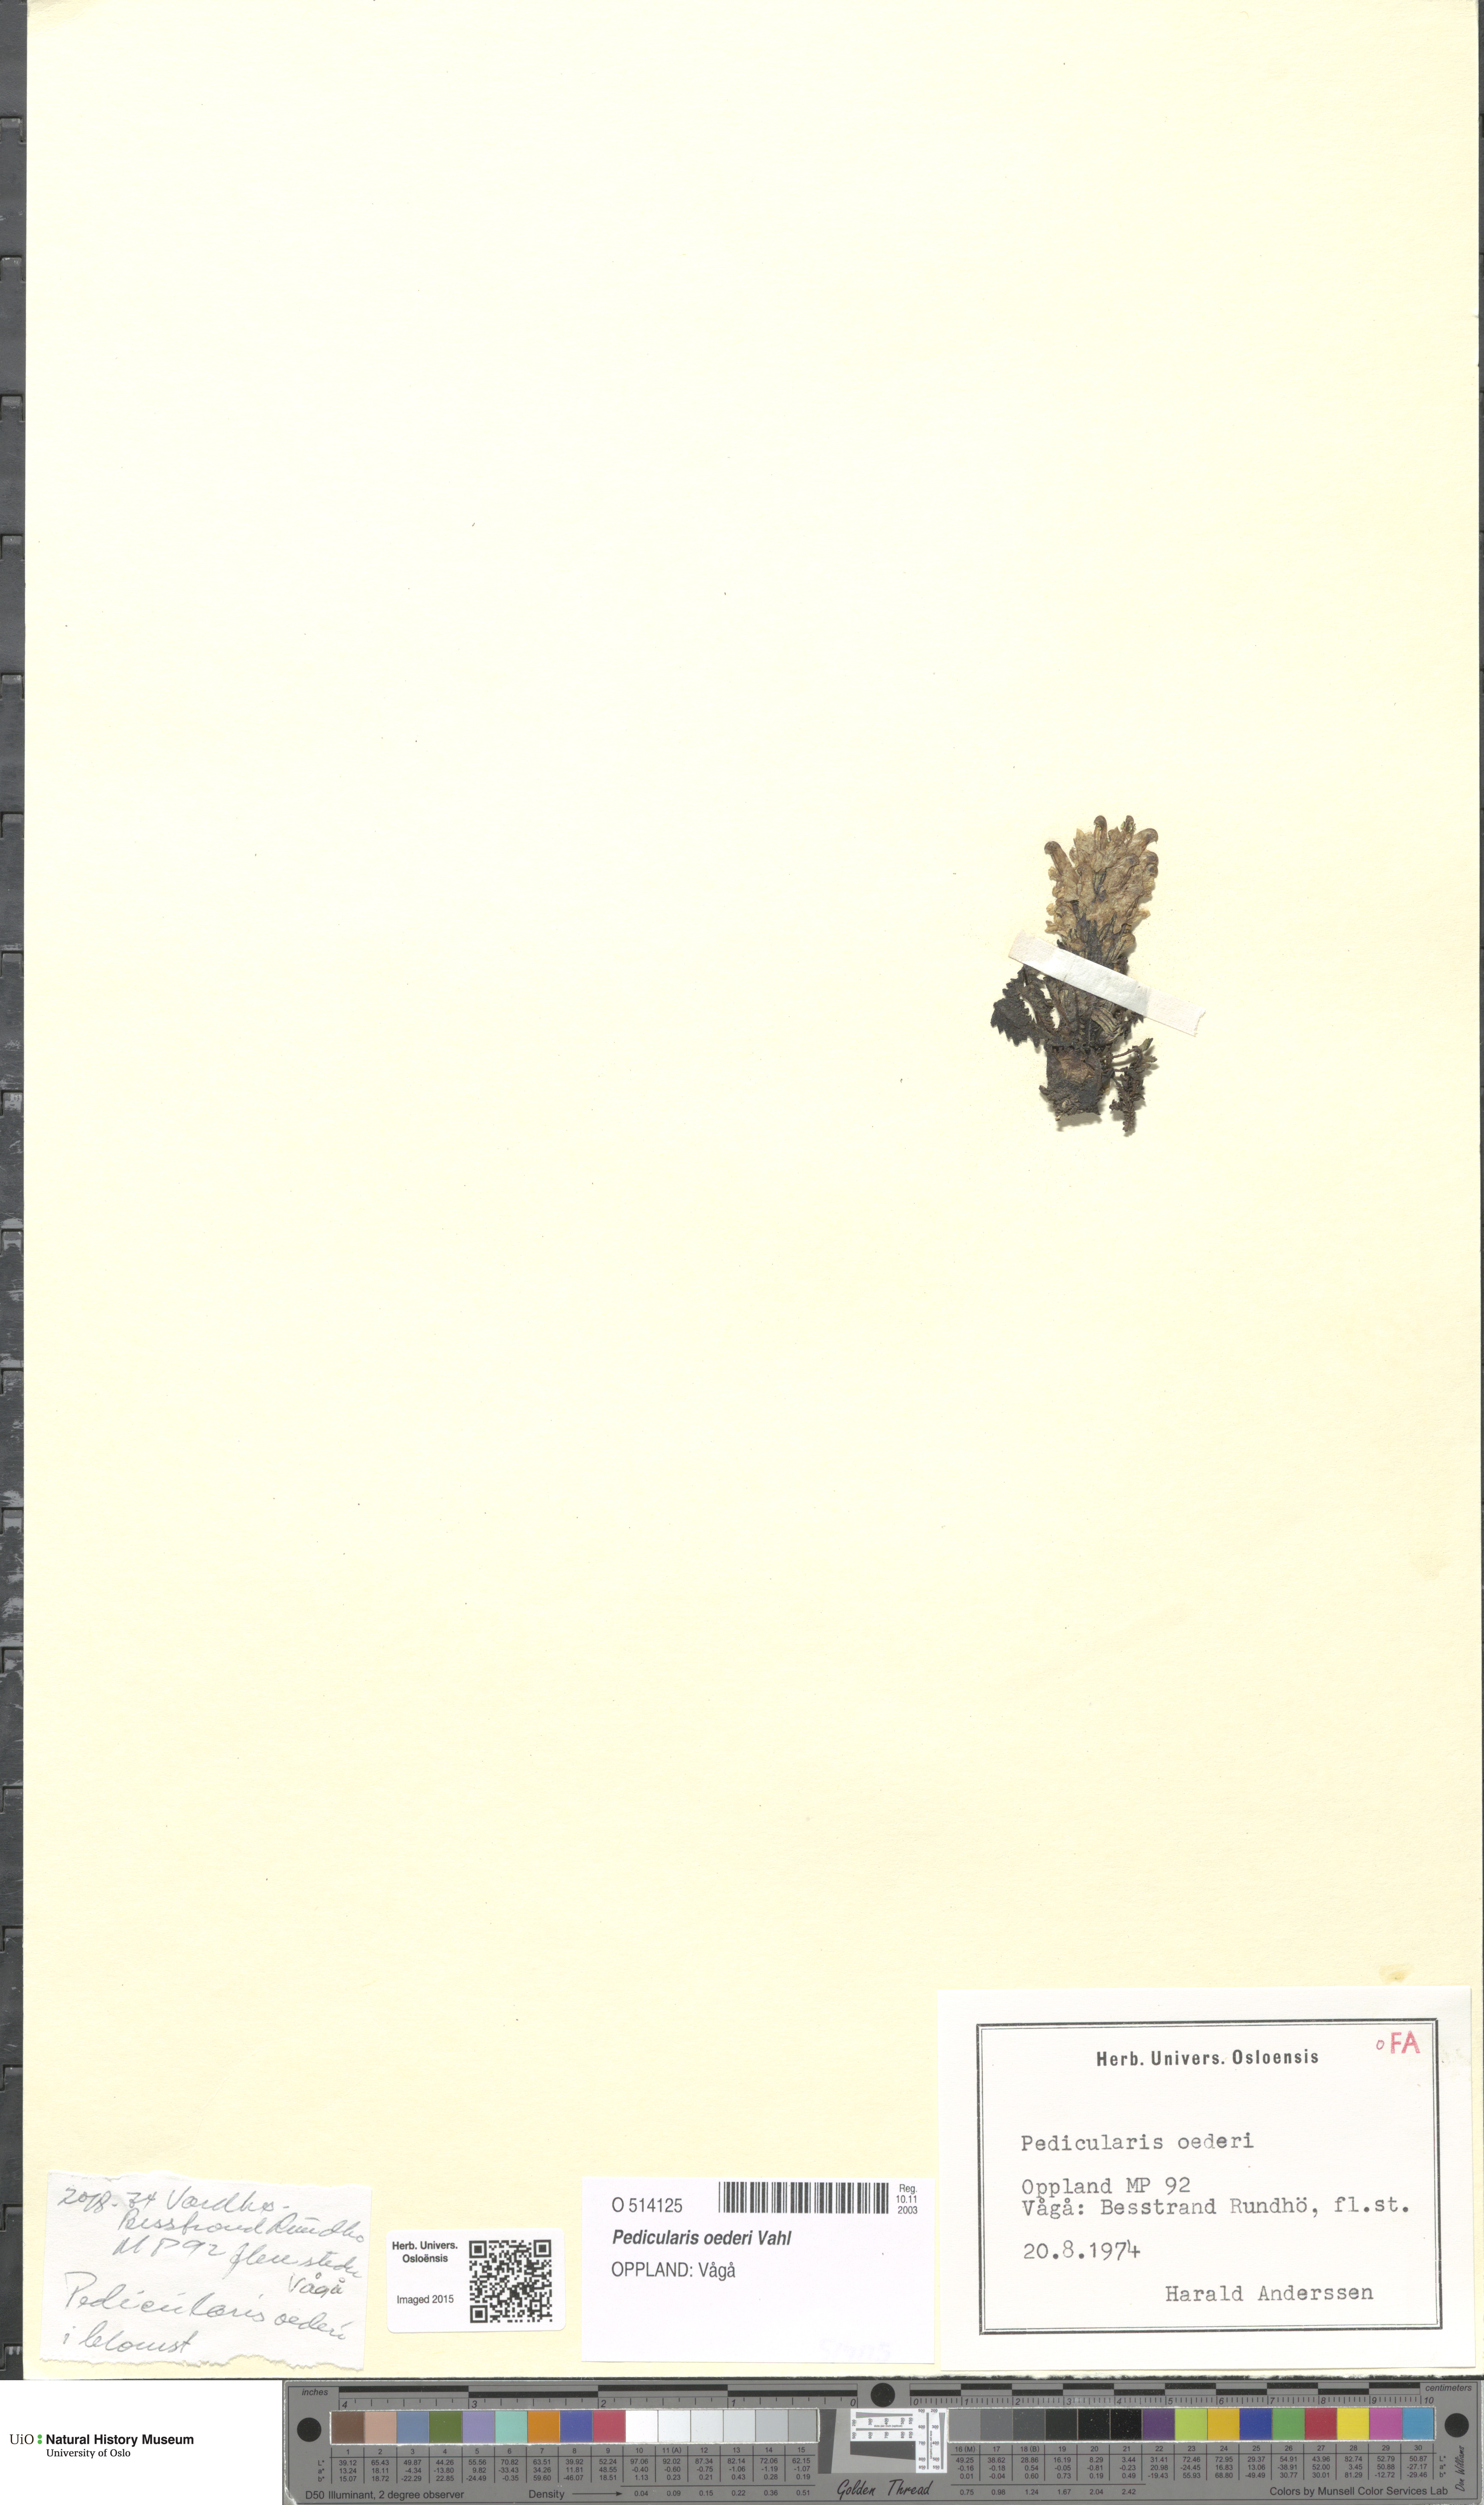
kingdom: Plantae
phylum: Tracheophyta
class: Magnoliopsida
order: Lamiales
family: Orobanchaceae
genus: Pedicularis
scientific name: Pedicularis oederi
